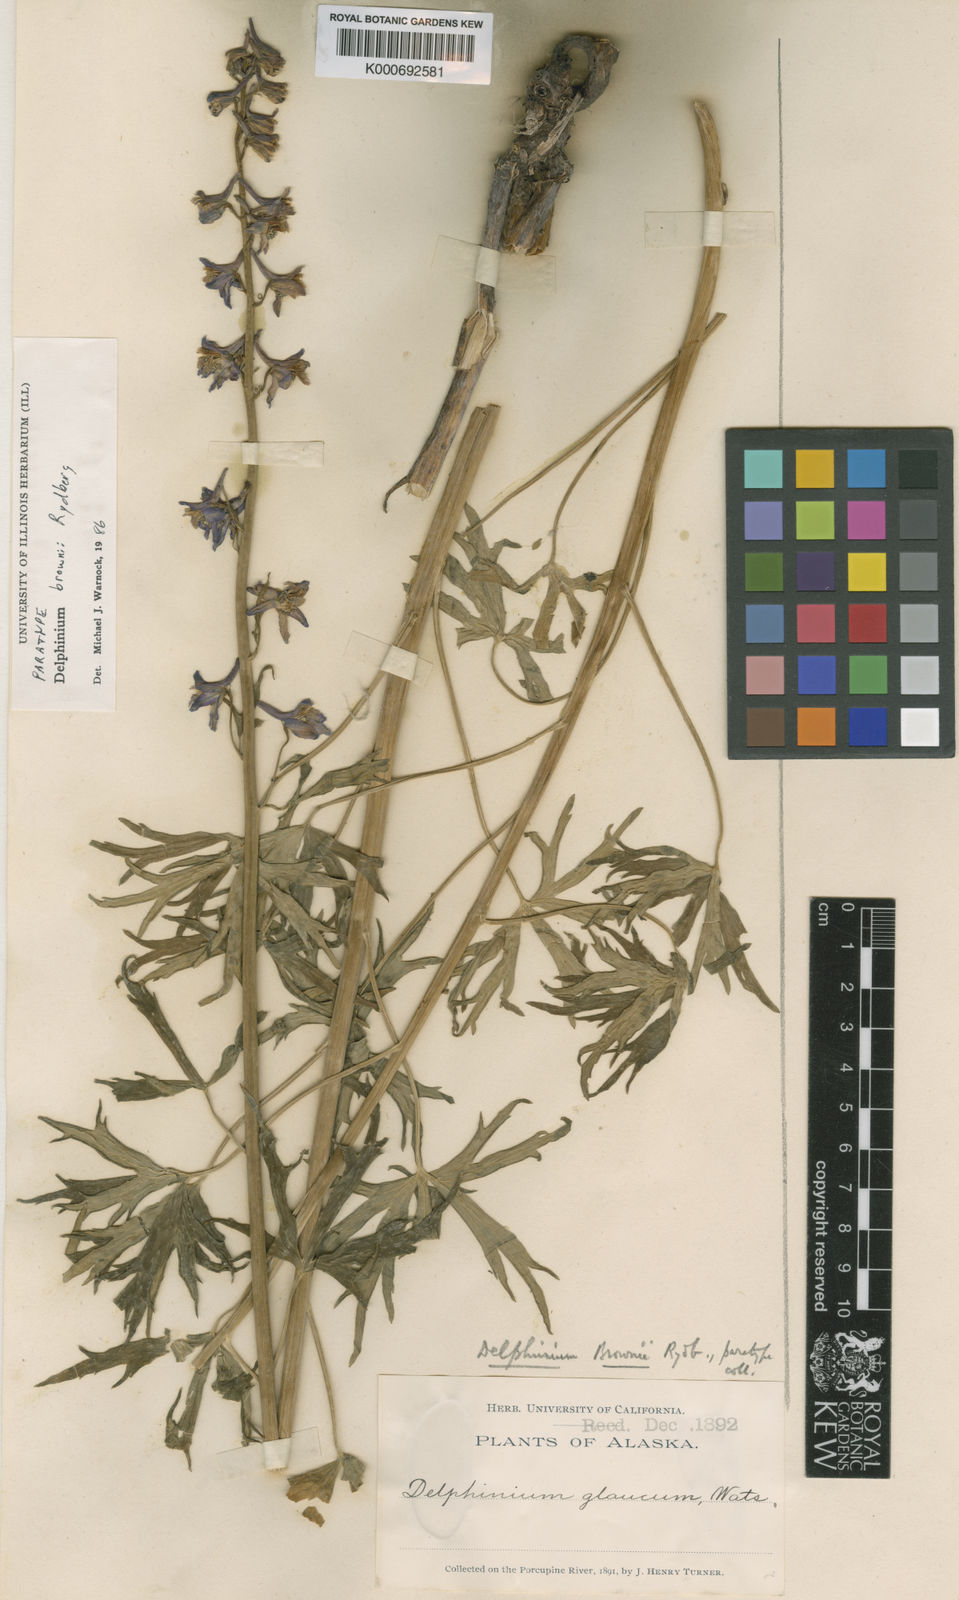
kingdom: Plantae
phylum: Tracheophyta
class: Magnoliopsida
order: Ranunculales
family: Ranunculaceae
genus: Delphinium
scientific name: Delphinium glaucum
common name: Brown's larkspur
